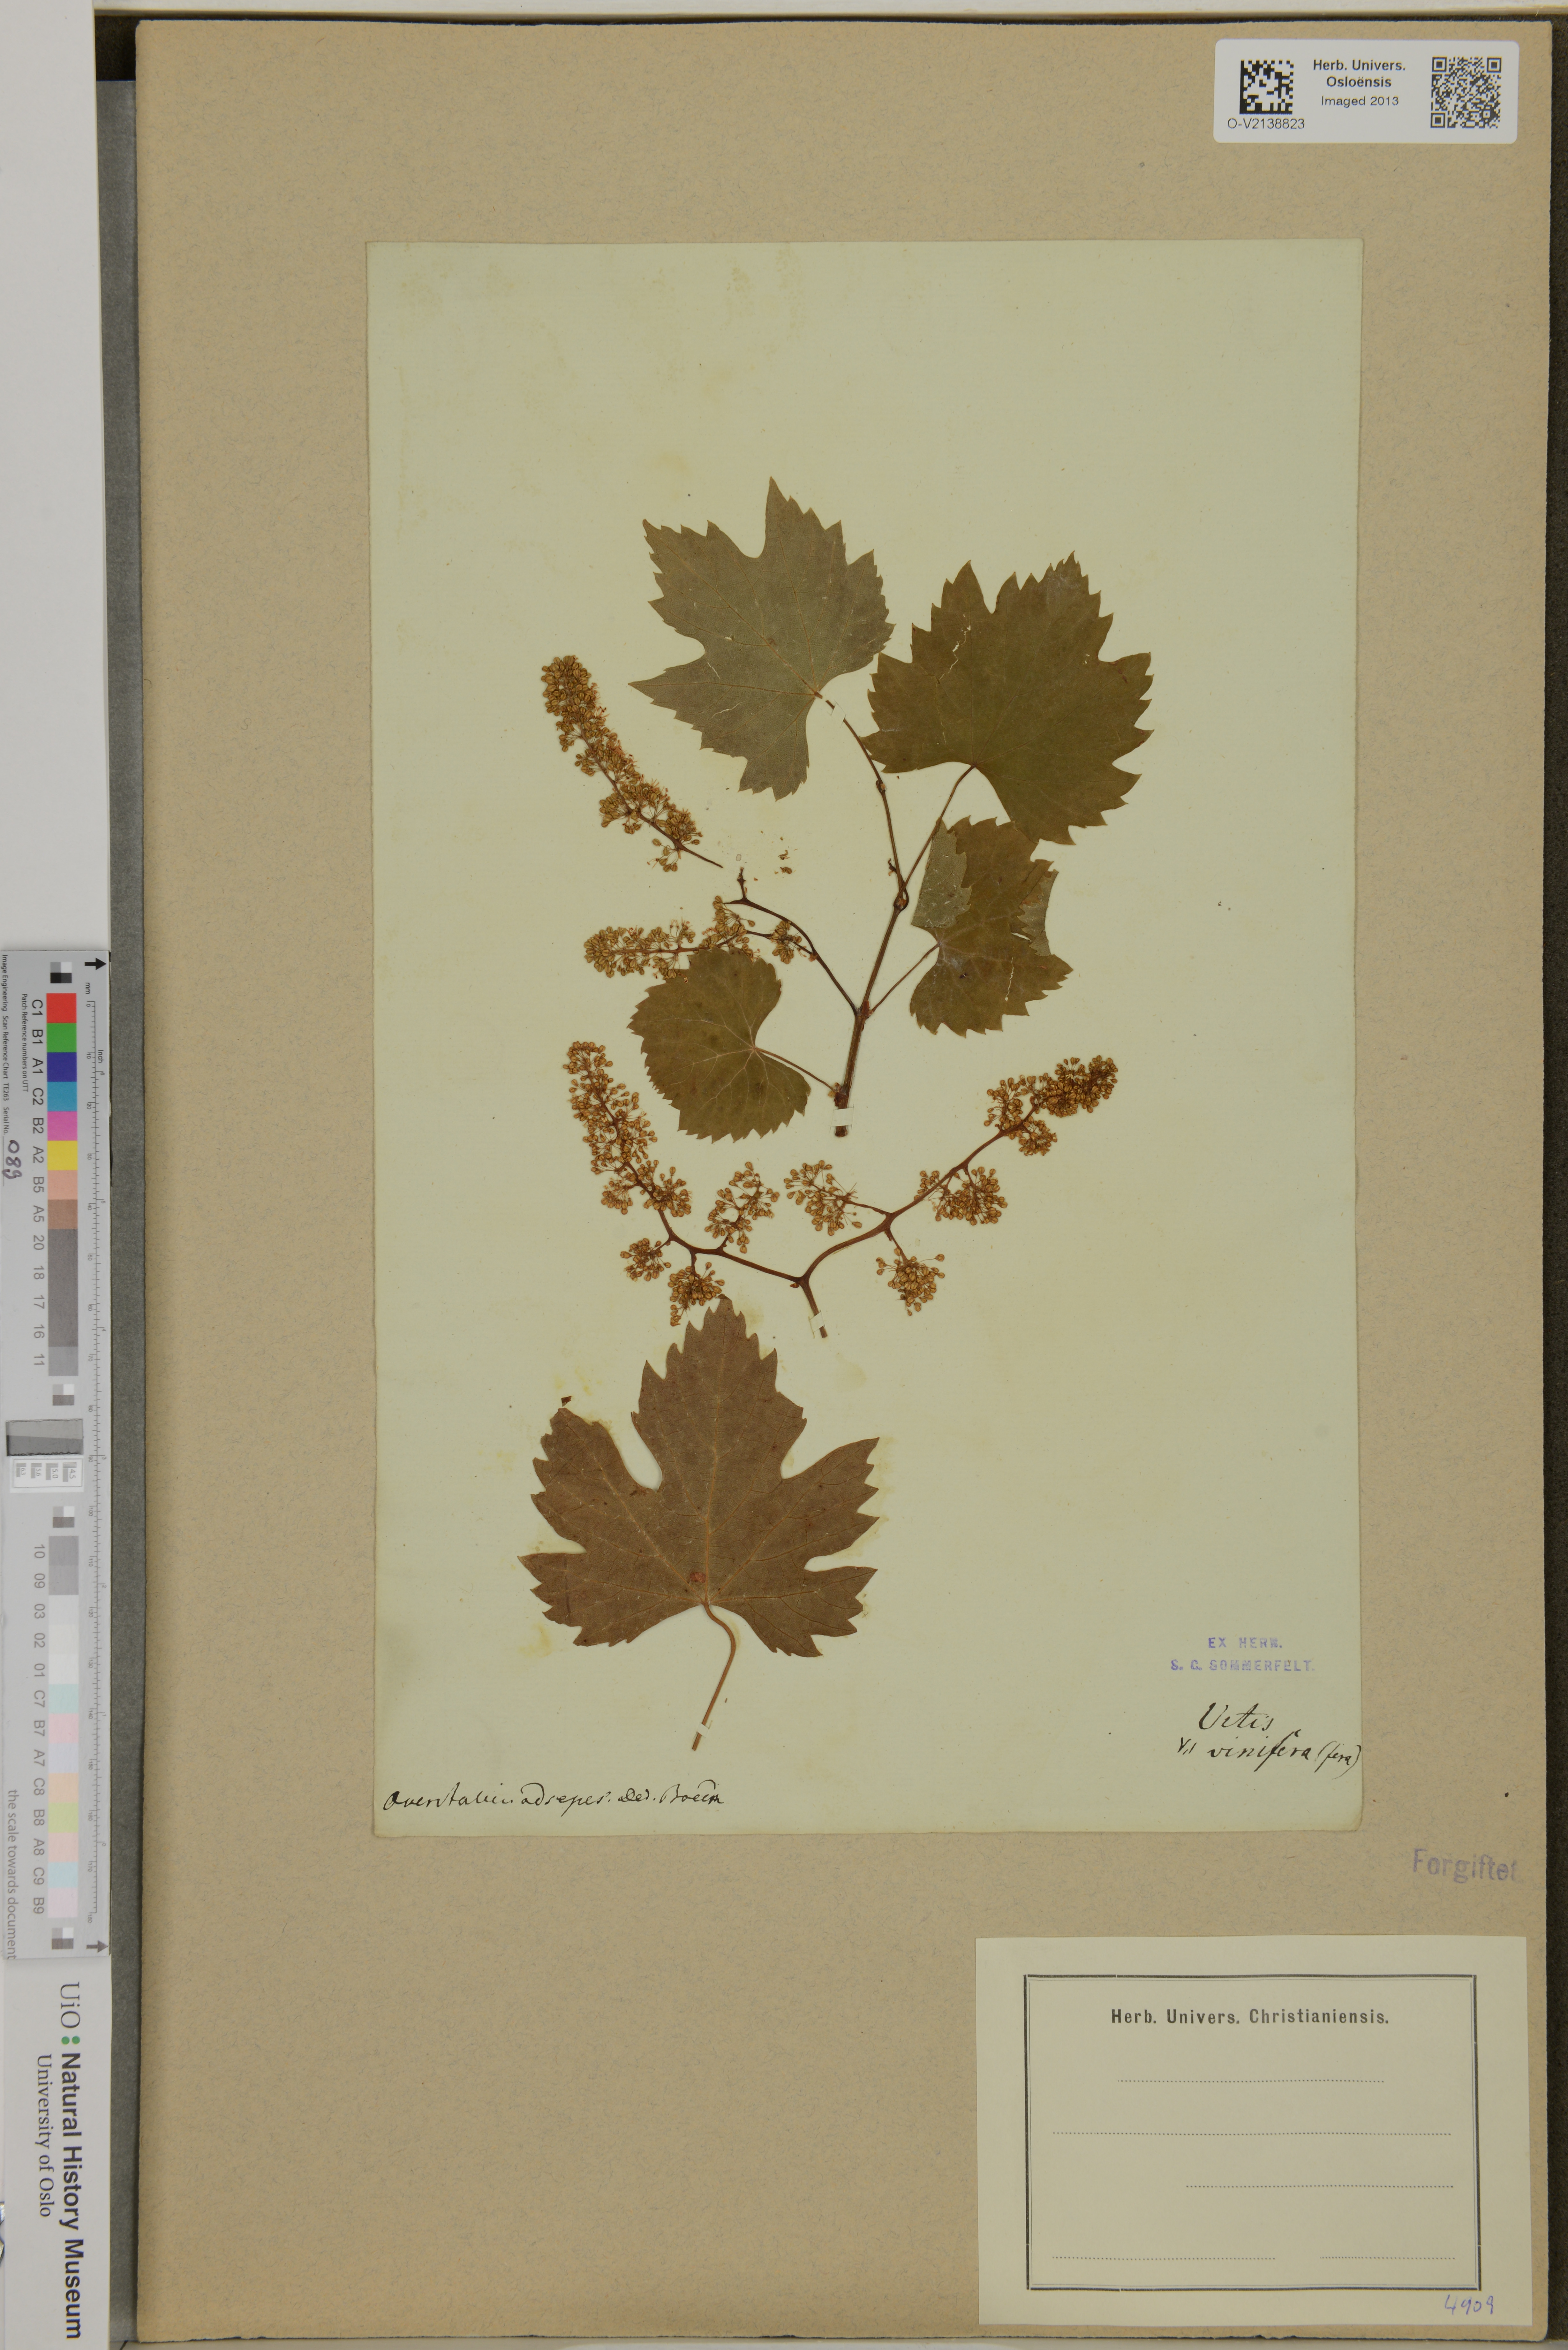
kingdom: Plantae
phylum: Tracheophyta
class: Magnoliopsida
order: Vitales
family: Vitaceae
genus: Vitis
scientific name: Vitis vinifera
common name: Grape-vine
